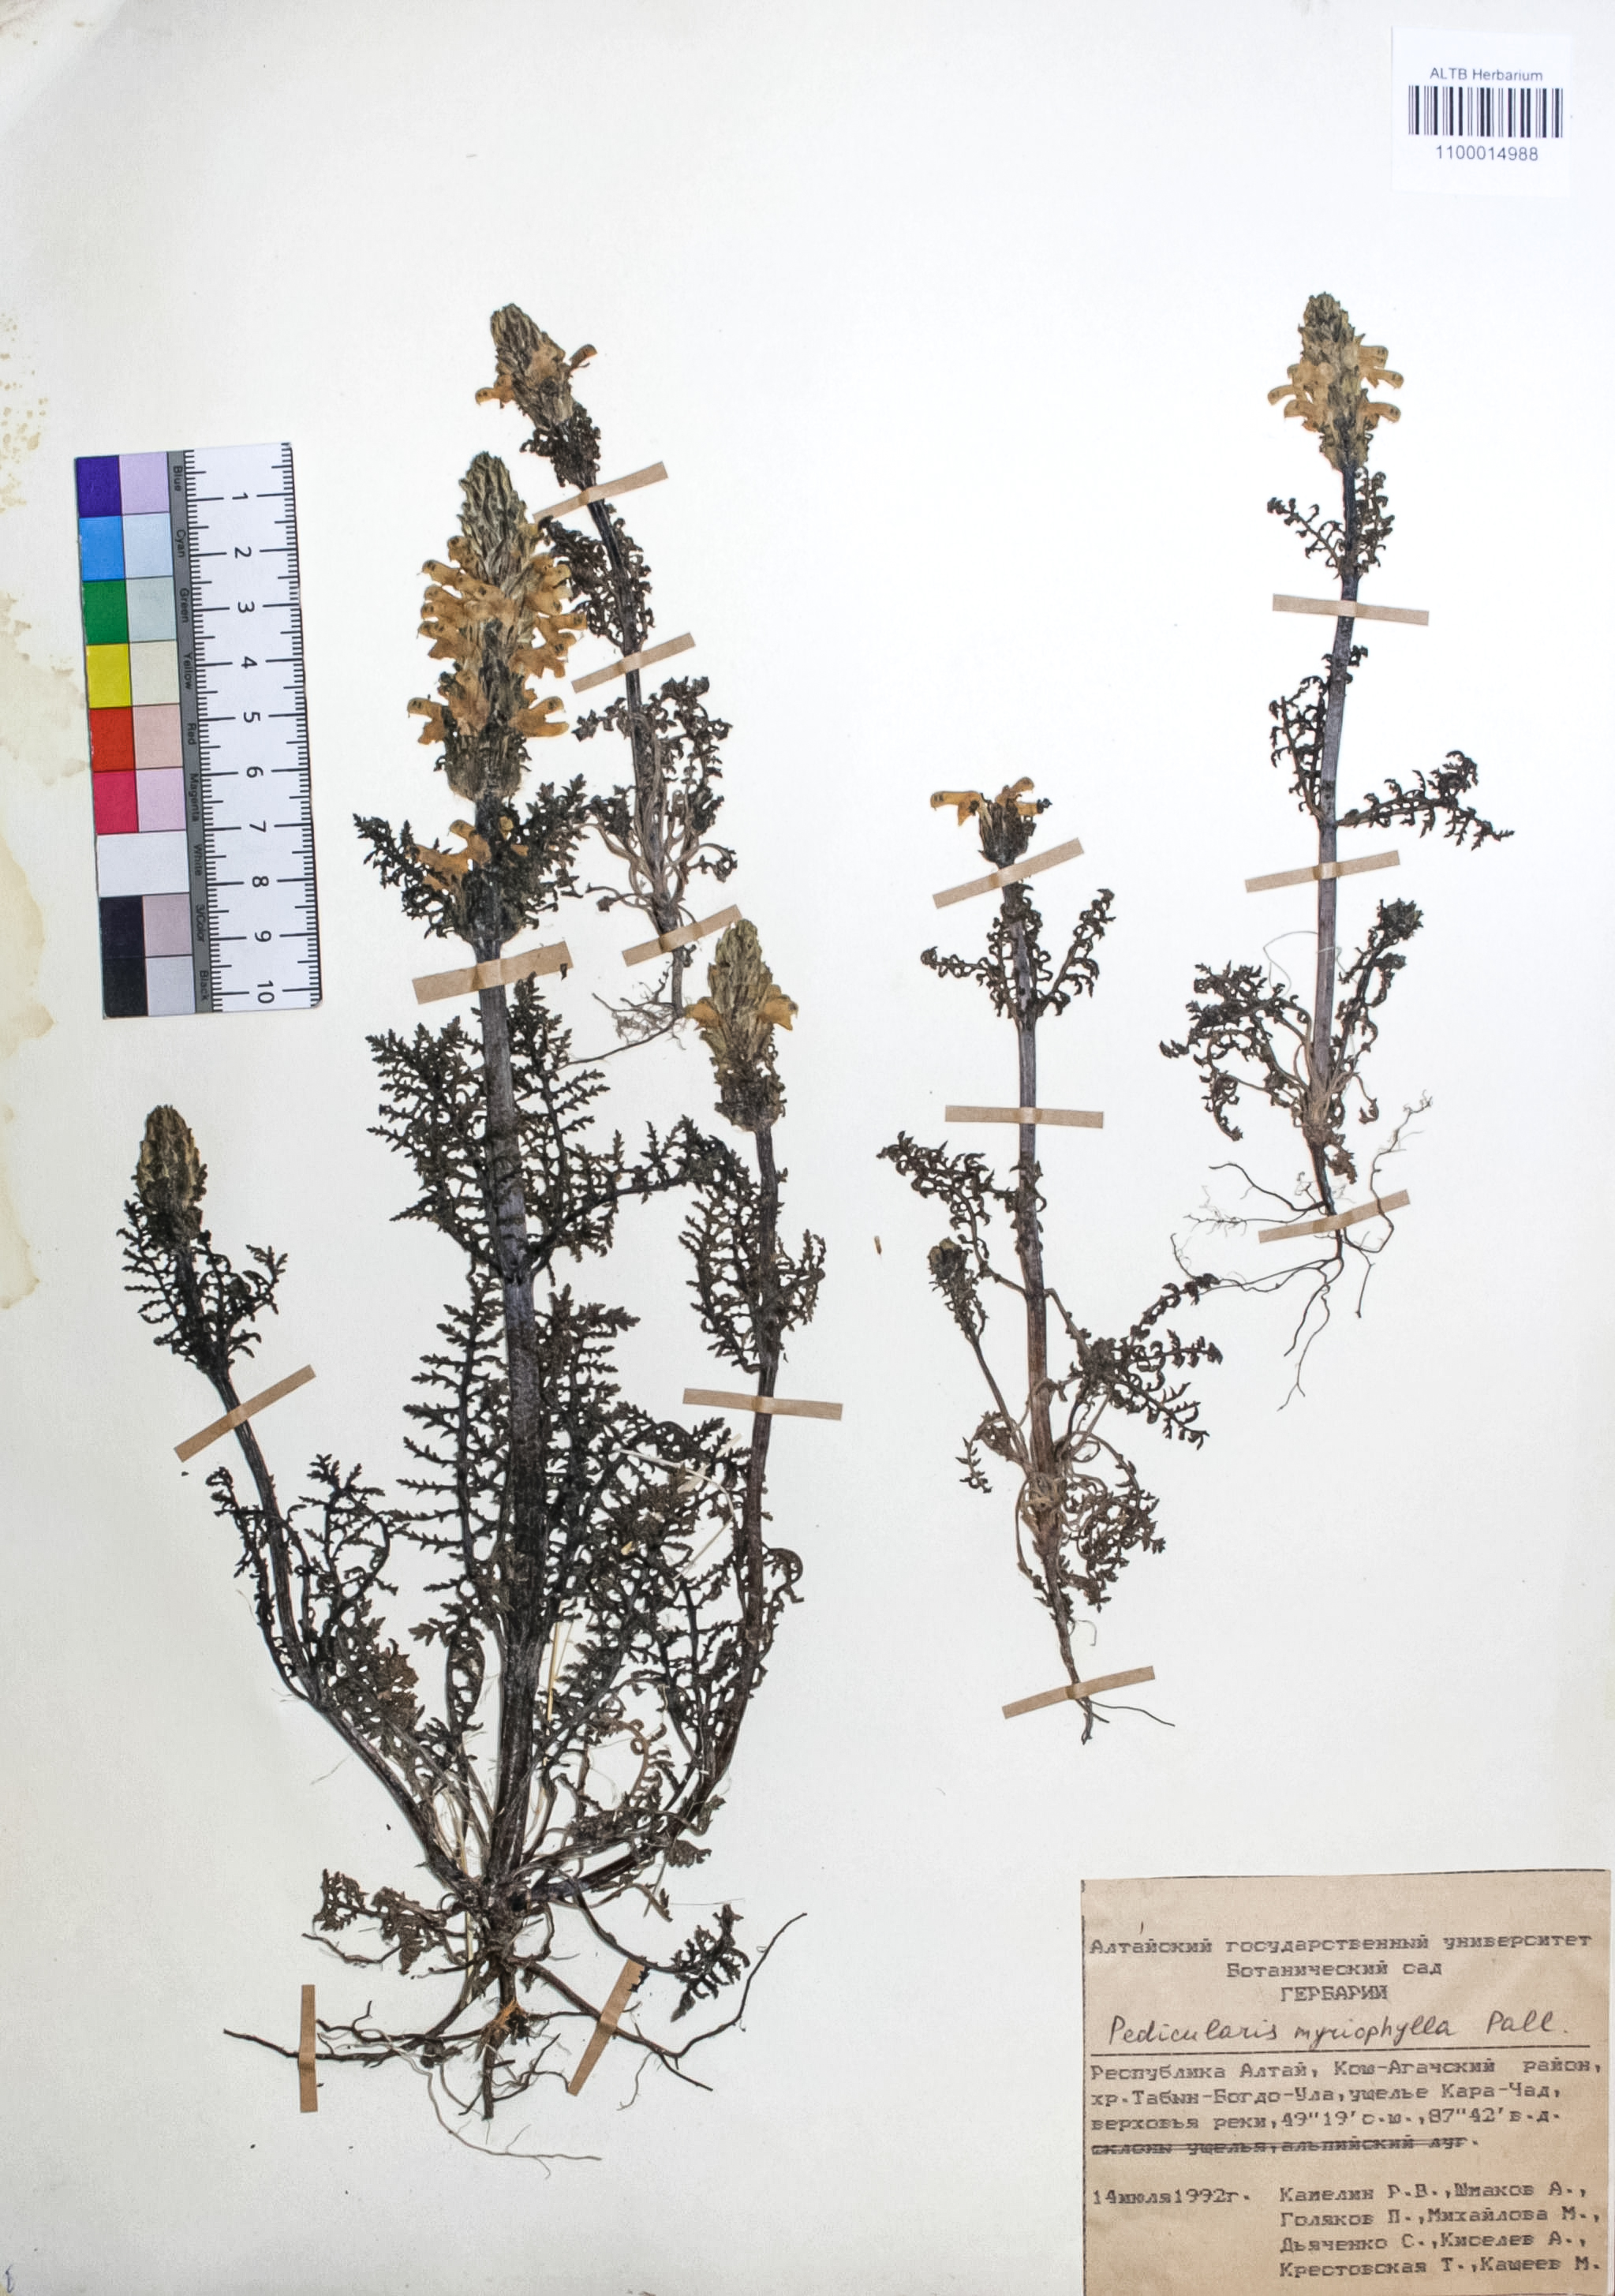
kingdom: Plantae
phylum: Tracheophyta
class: Magnoliopsida
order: Lamiales
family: Orobanchaceae
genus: Pedicularis
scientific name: Pedicularis myriophylla
